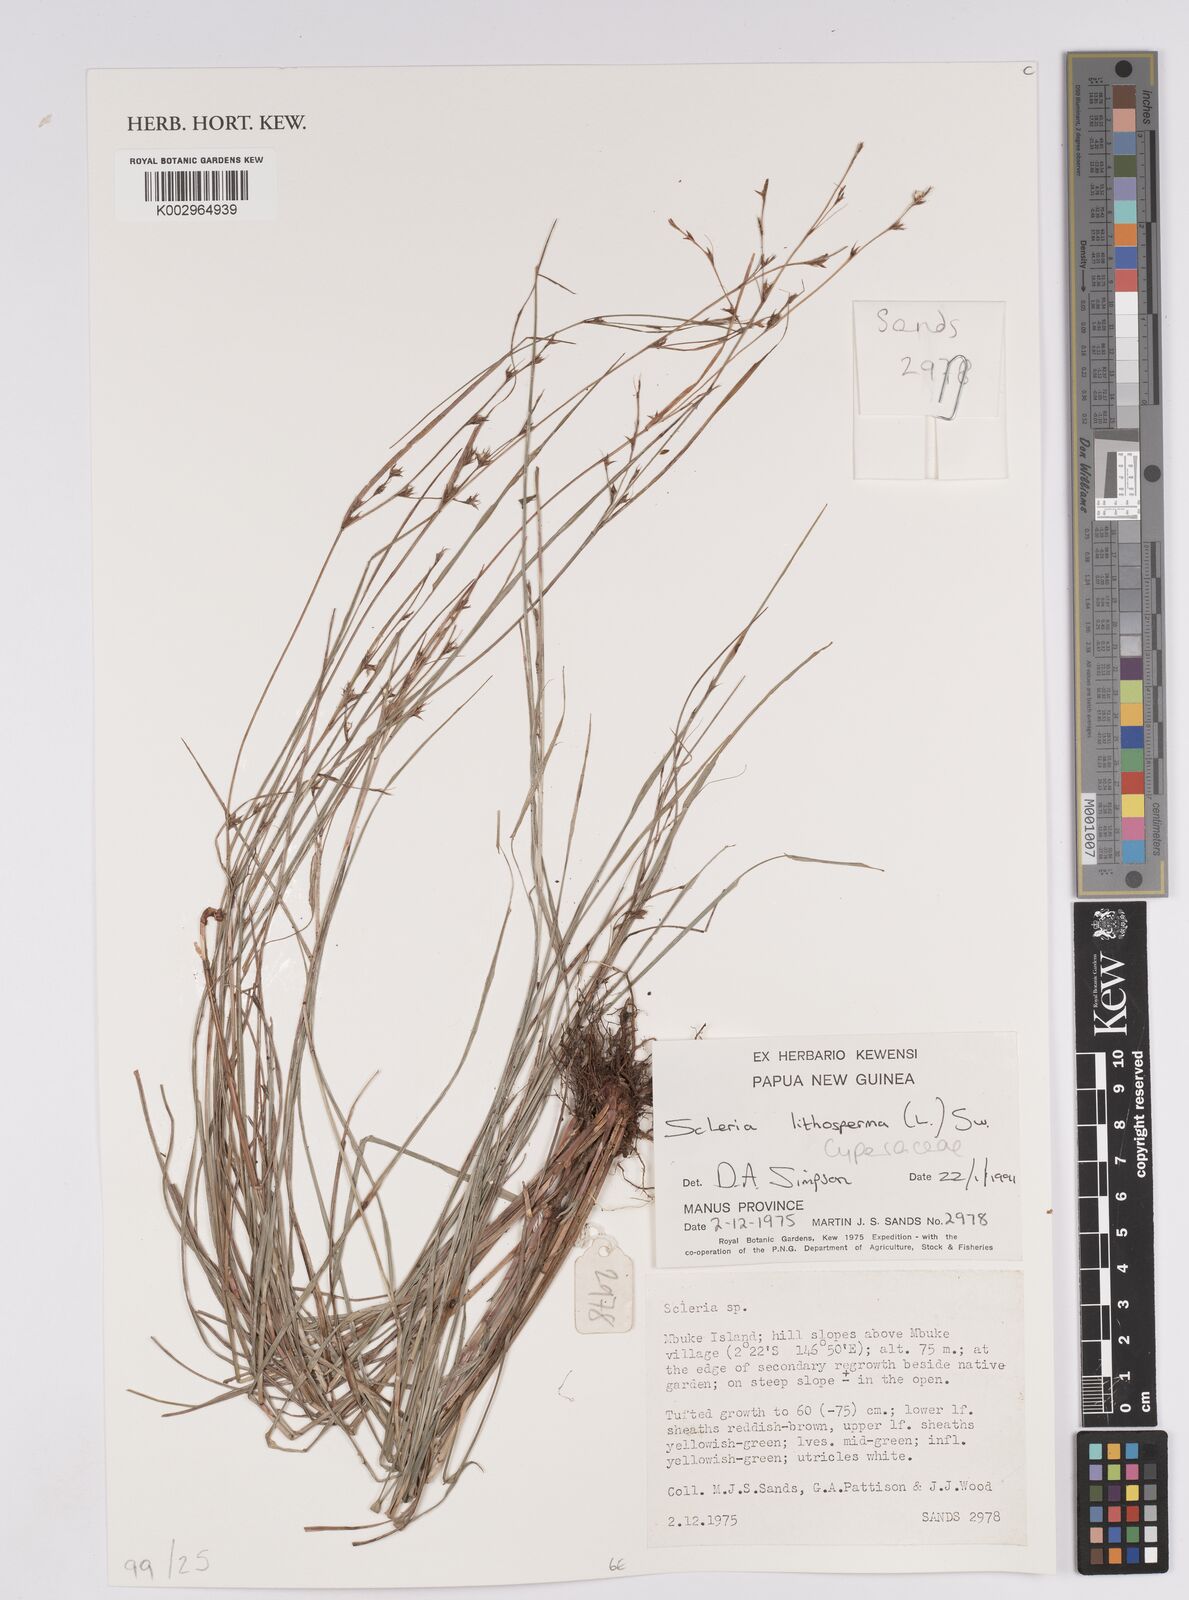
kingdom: Plantae
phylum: Tracheophyta
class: Liliopsida
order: Poales
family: Cyperaceae
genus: Scleria
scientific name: Scleria lithosperma
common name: Florida keys nut-rush
